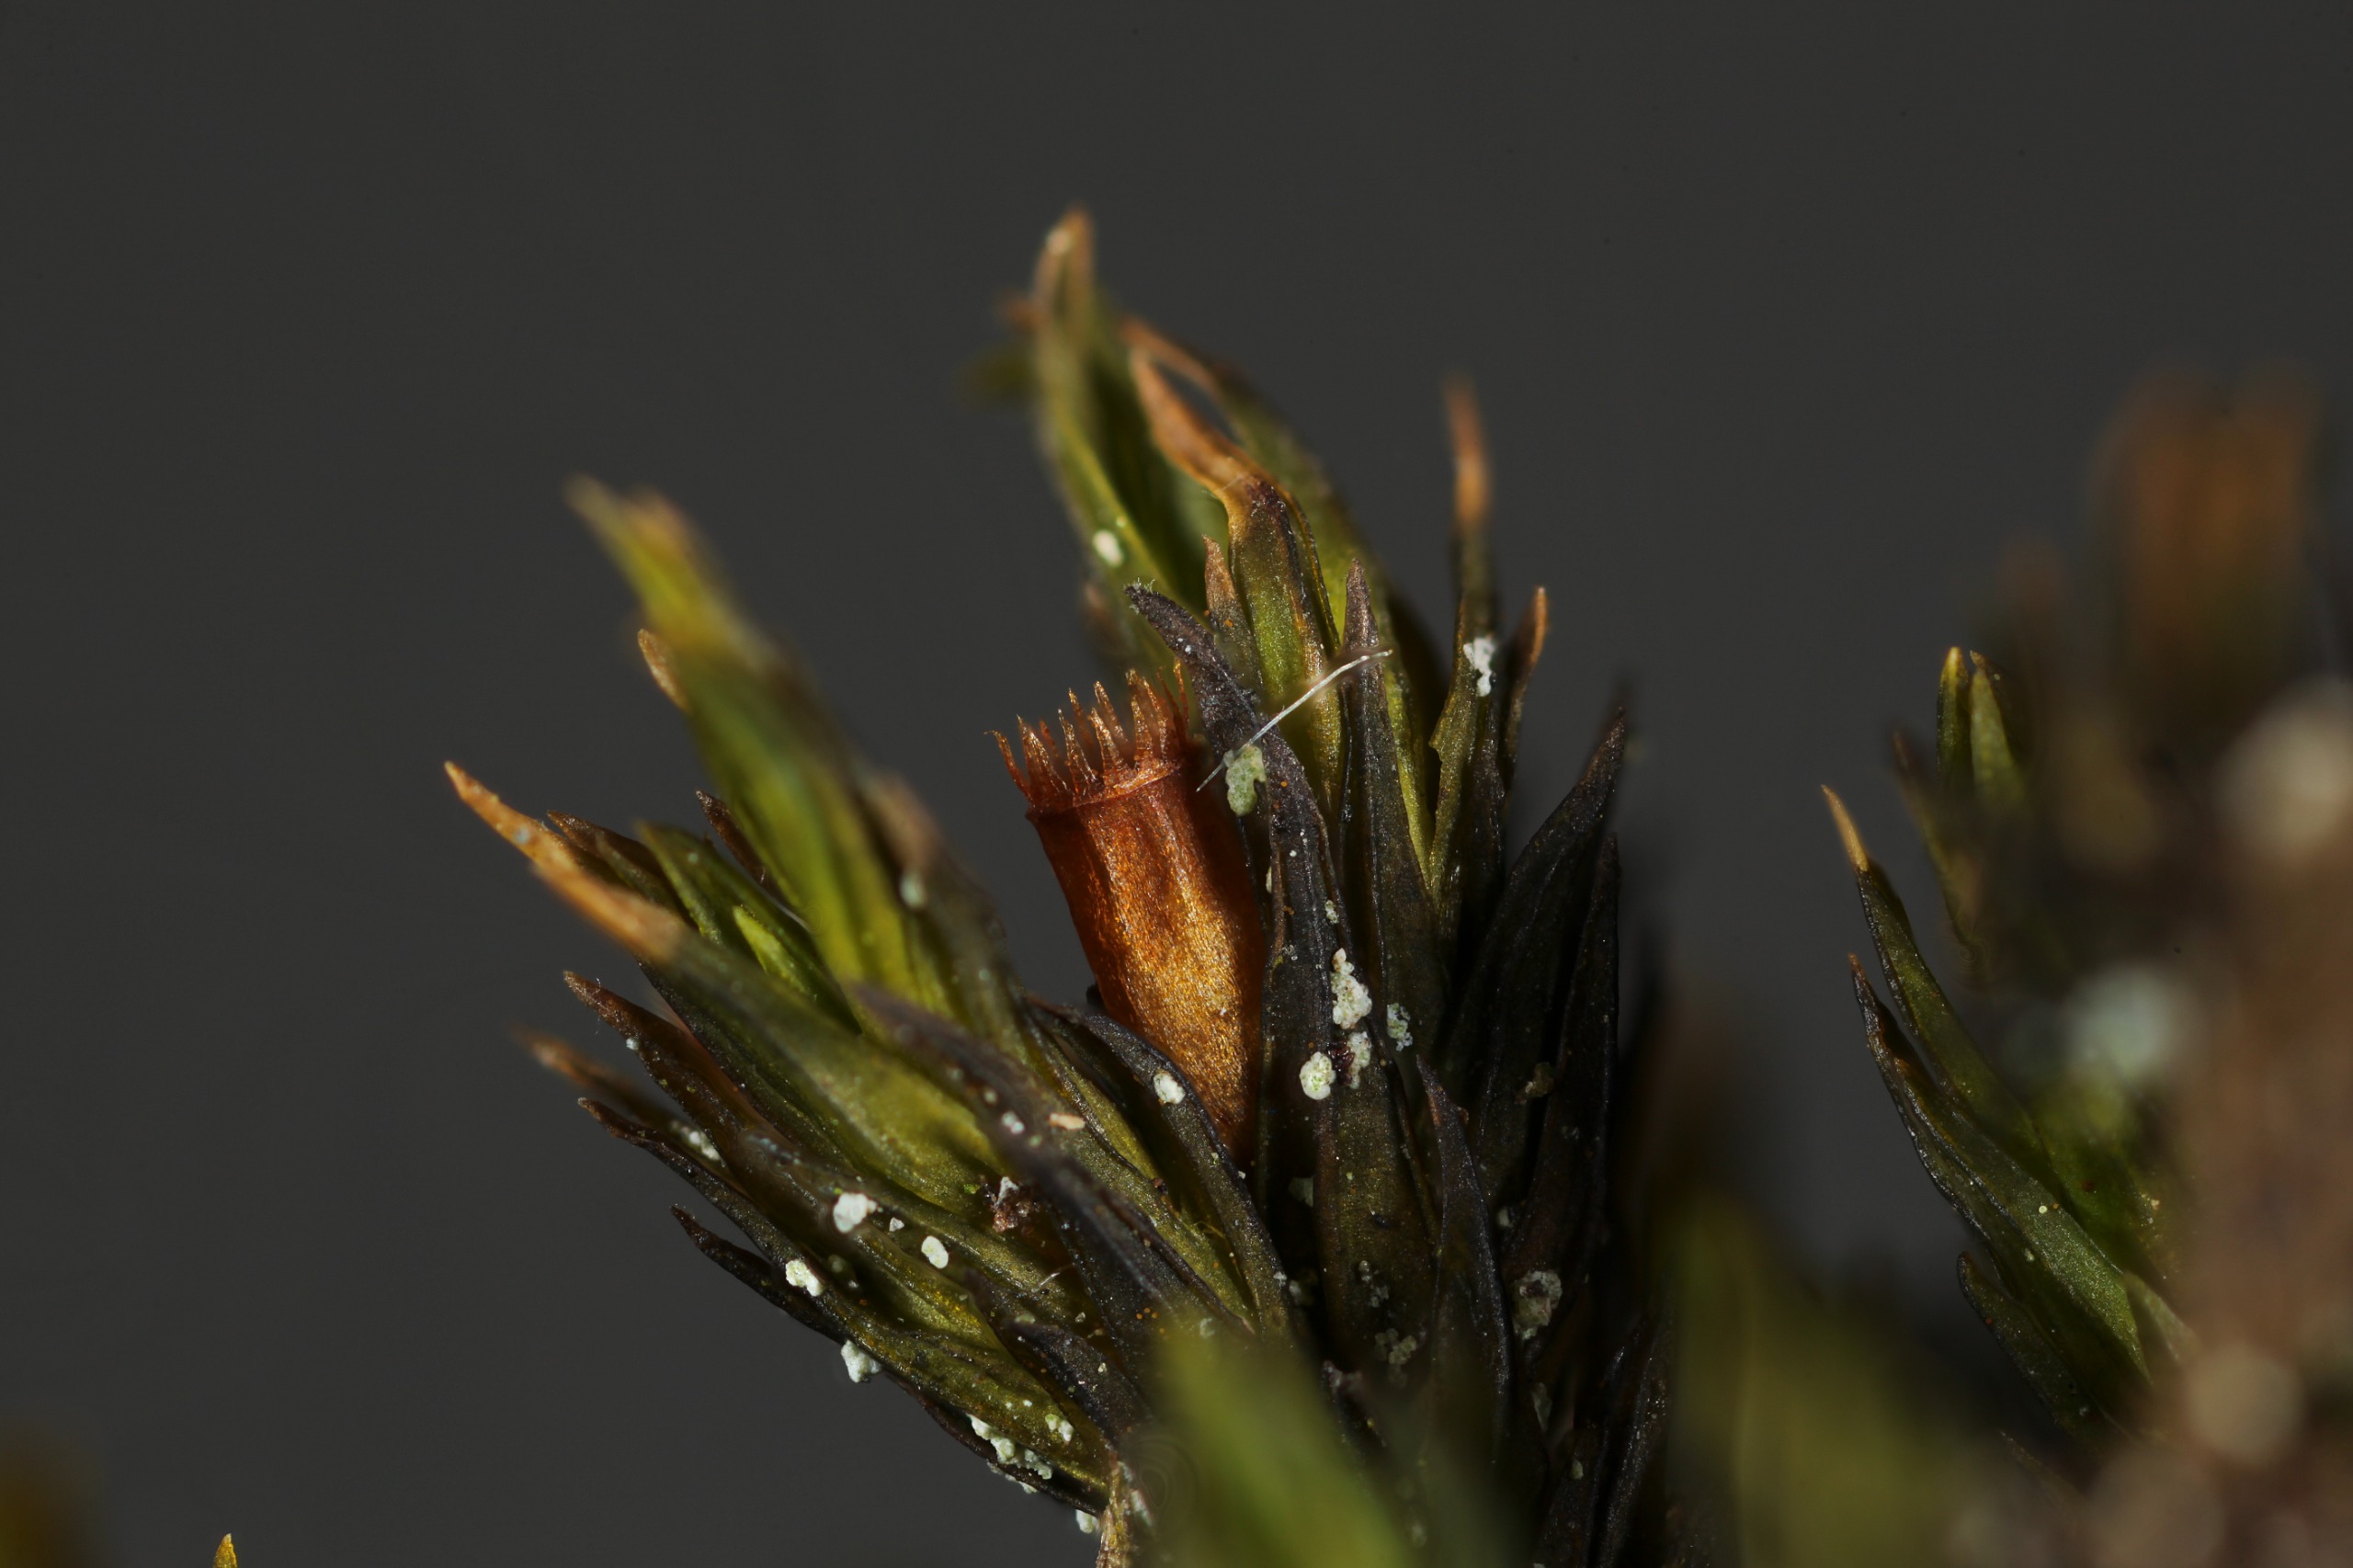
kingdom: Plantae
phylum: Bryophyta
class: Bryopsida
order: Orthotrichales
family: Orthotrichaceae
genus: Lewinskya
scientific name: Lewinskya rupestris
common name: Sten-furehætte
